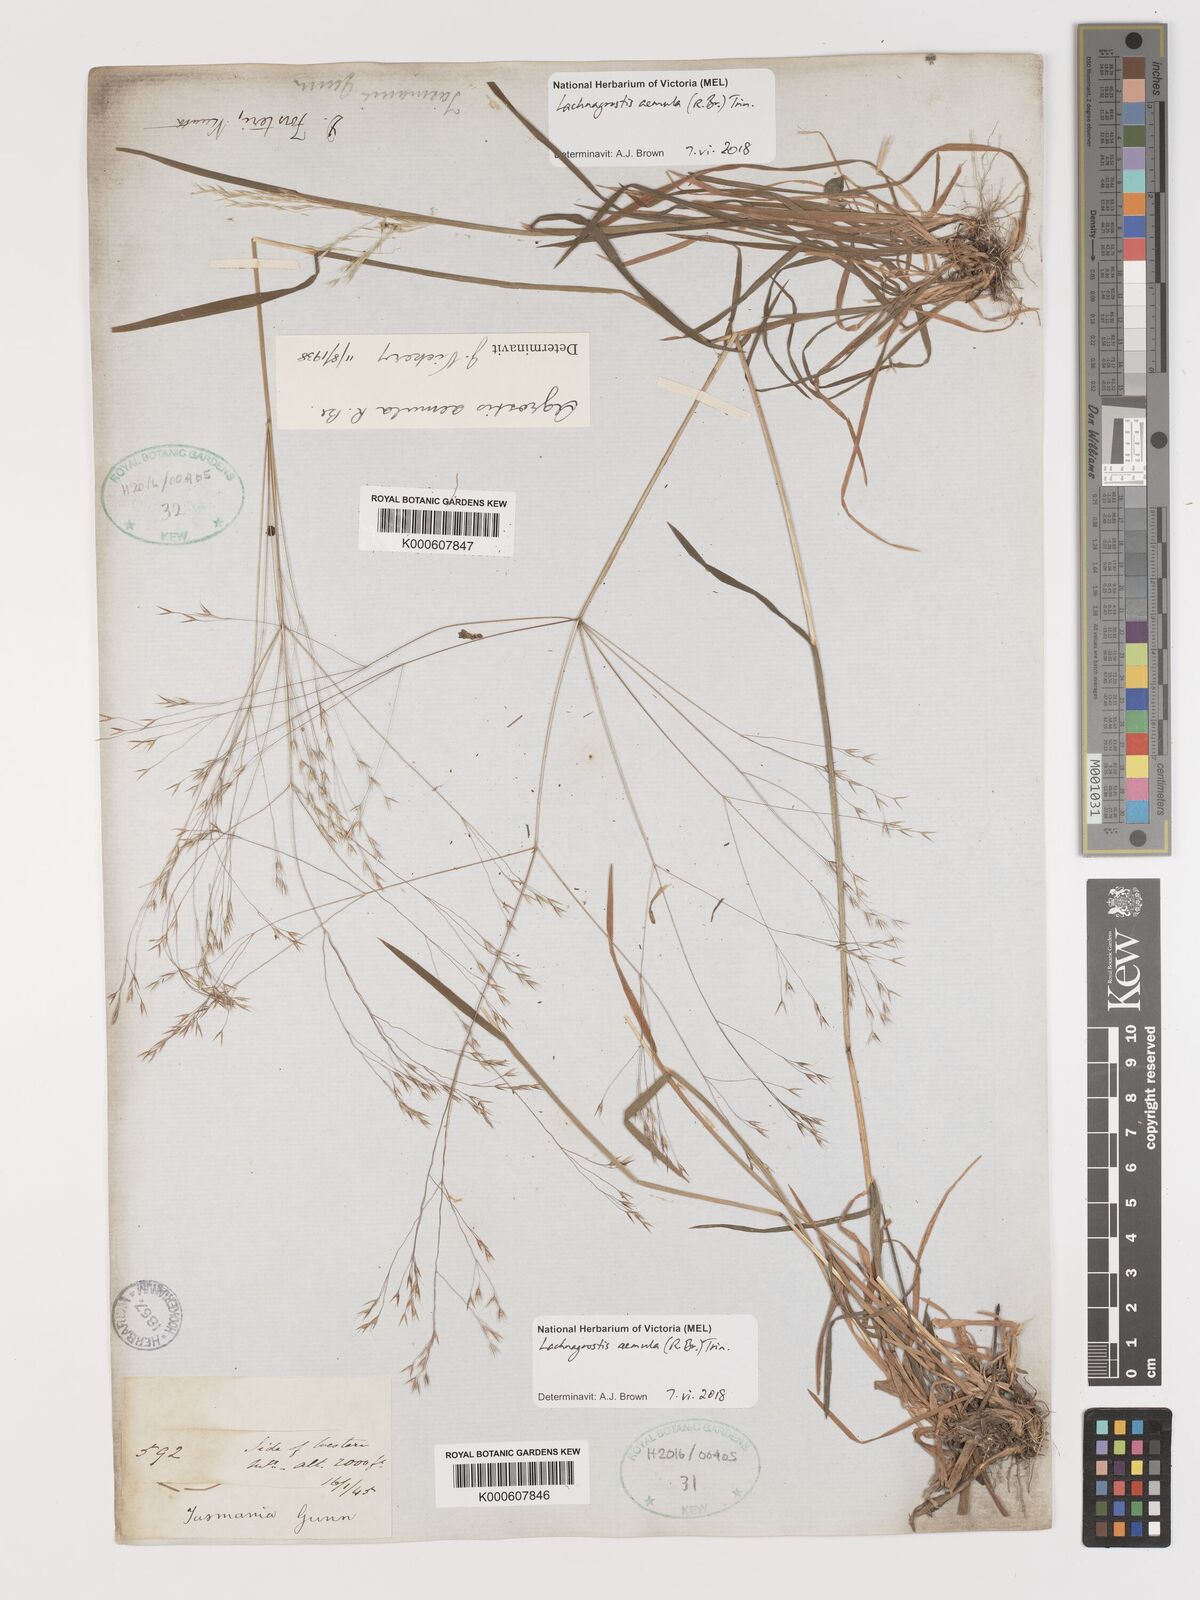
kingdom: Plantae
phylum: Tracheophyta
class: Liliopsida
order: Poales
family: Poaceae
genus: Lachnagrostis
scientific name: Lachnagrostis aemula
